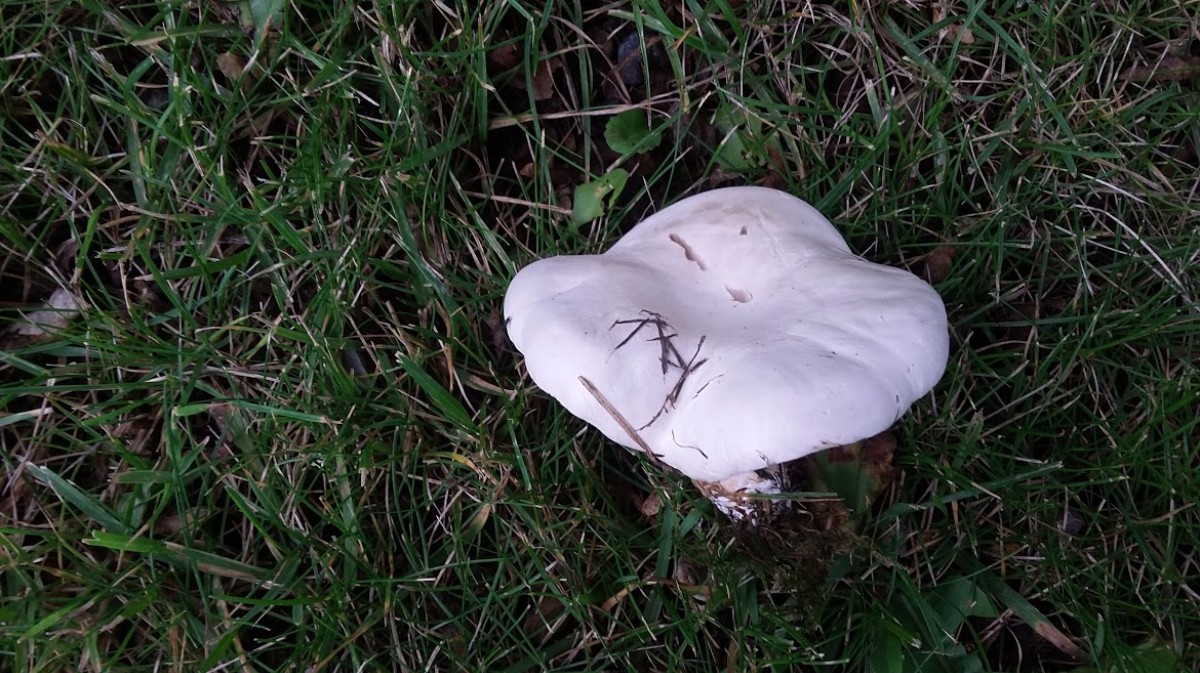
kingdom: Fungi
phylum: Basidiomycota
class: Agaricomycetes
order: Agaricales
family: Entolomataceae
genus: Clitopilus
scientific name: Clitopilus prunulus
